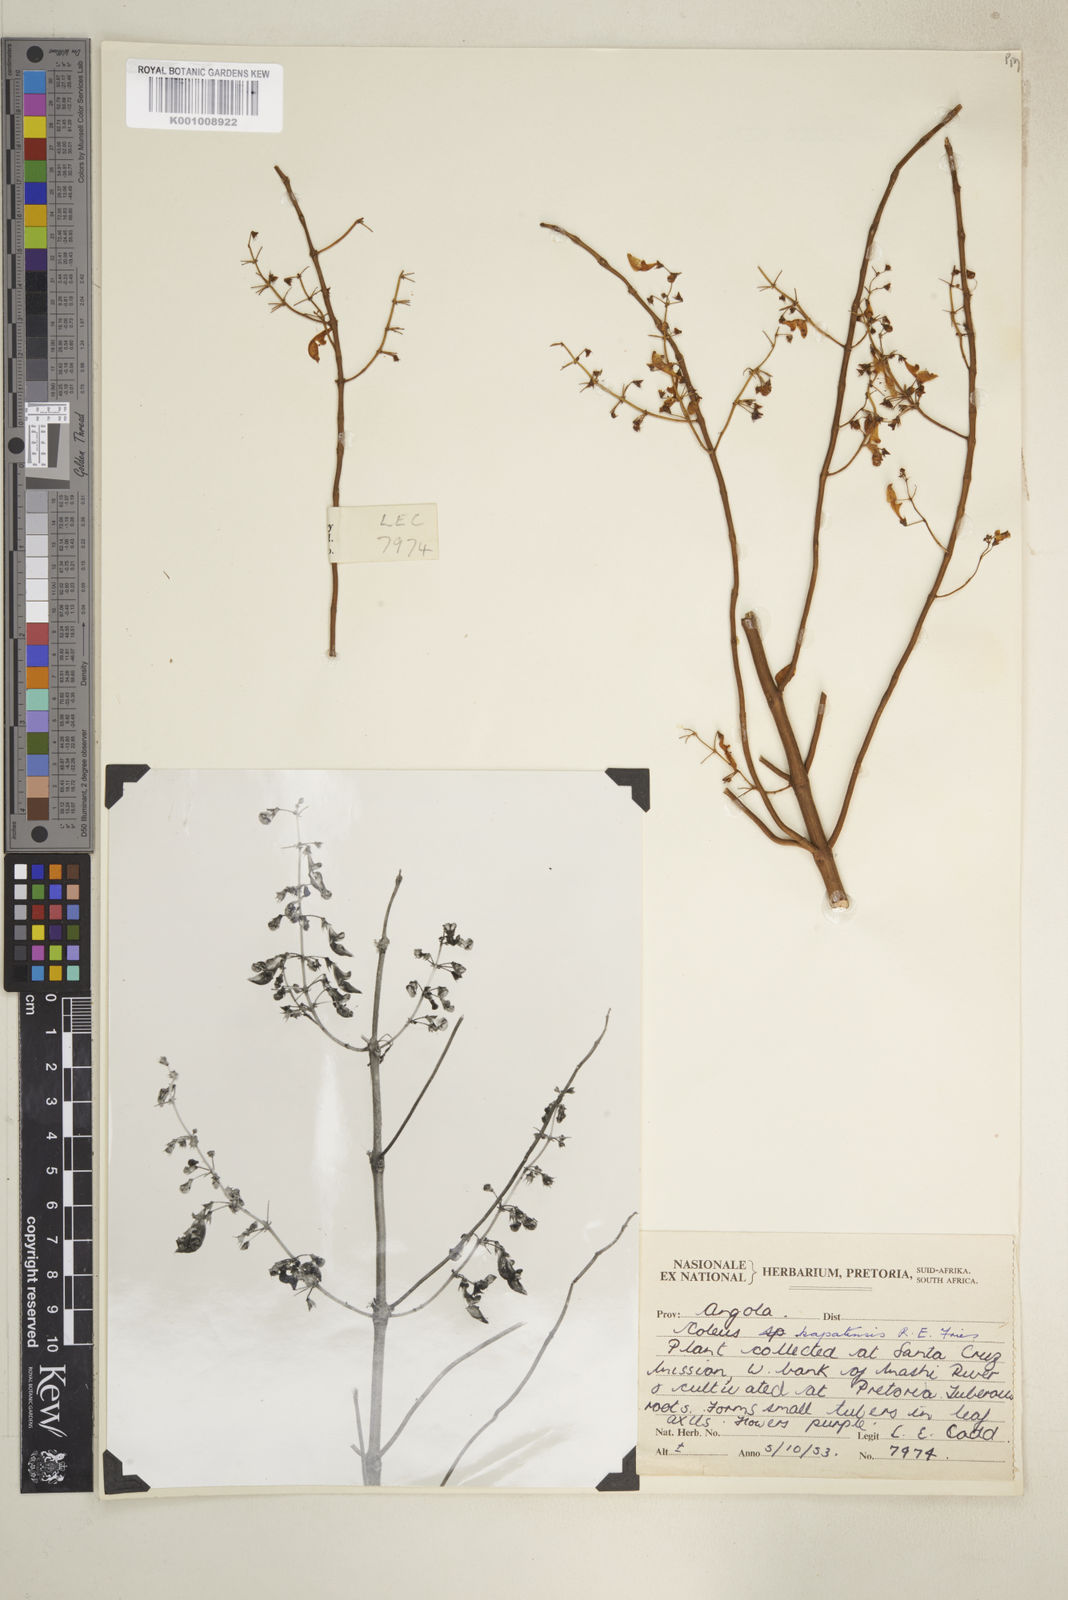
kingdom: Plantae
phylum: Tracheophyta
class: Magnoliopsida
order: Lamiales
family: Lamiaceae
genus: Coleus
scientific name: Coleus kapatensis
